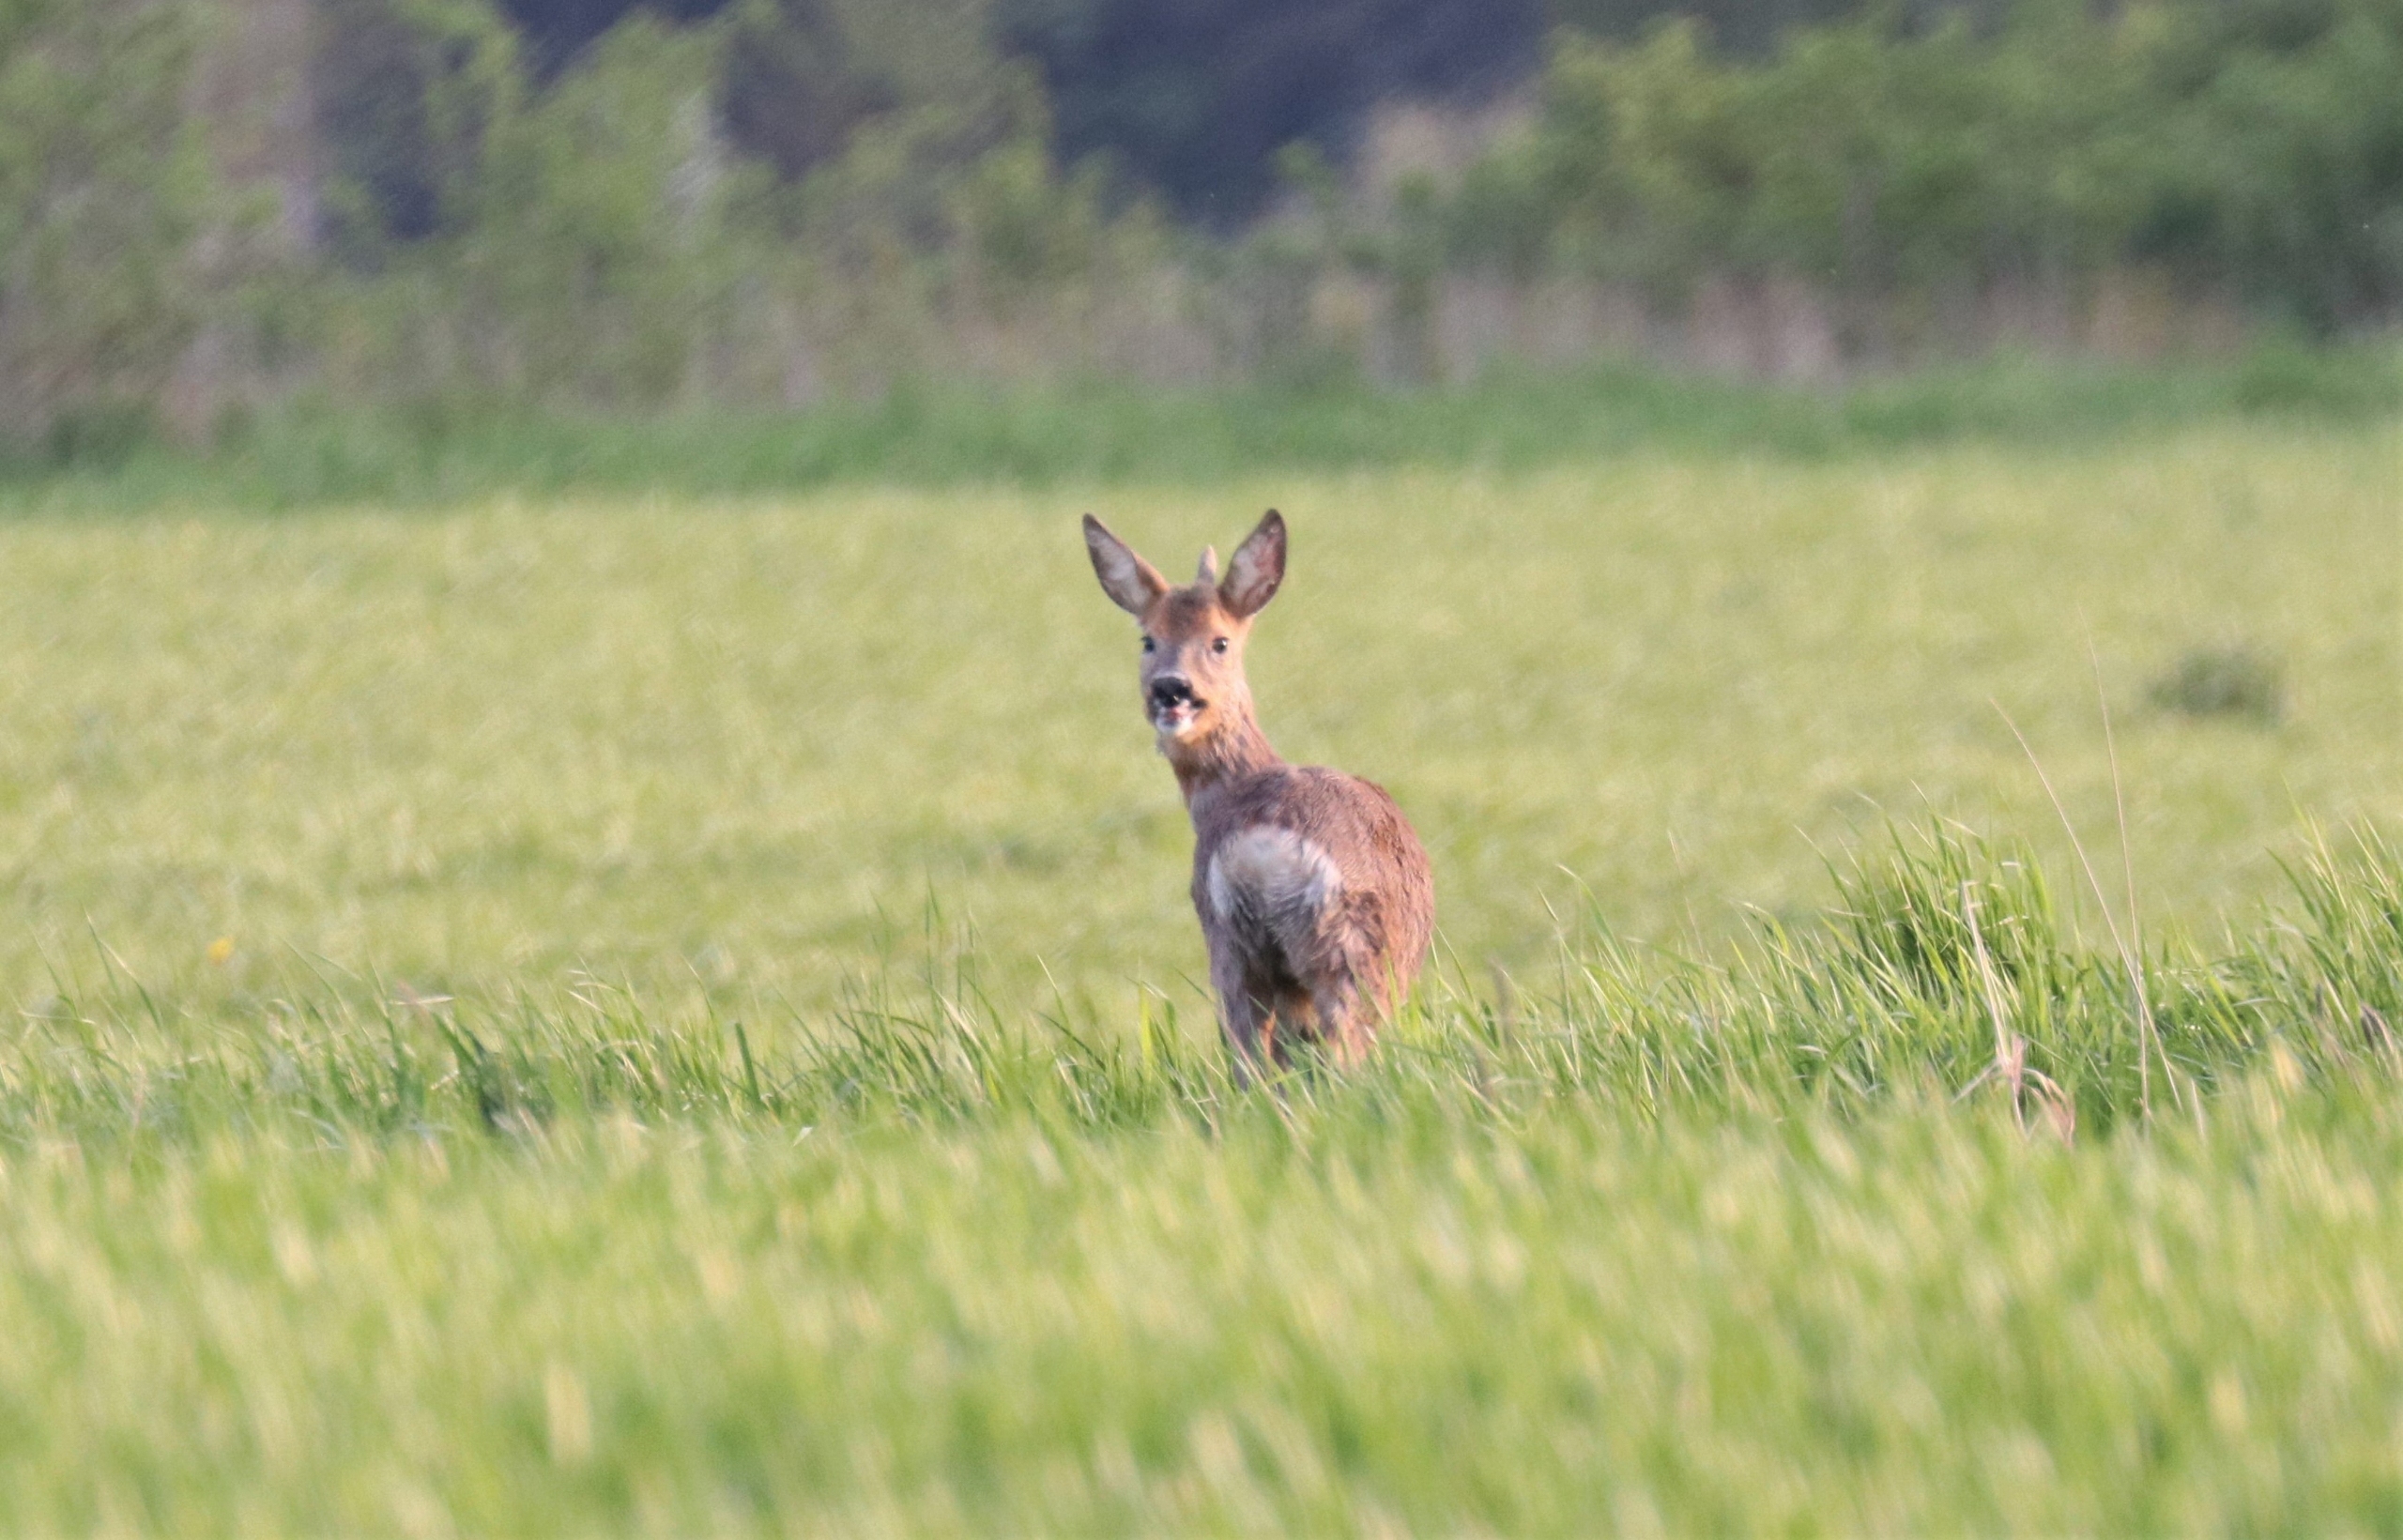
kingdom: Animalia
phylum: Chordata
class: Mammalia
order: Artiodactyla
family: Cervidae
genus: Capreolus
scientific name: Capreolus capreolus
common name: Rådyr
